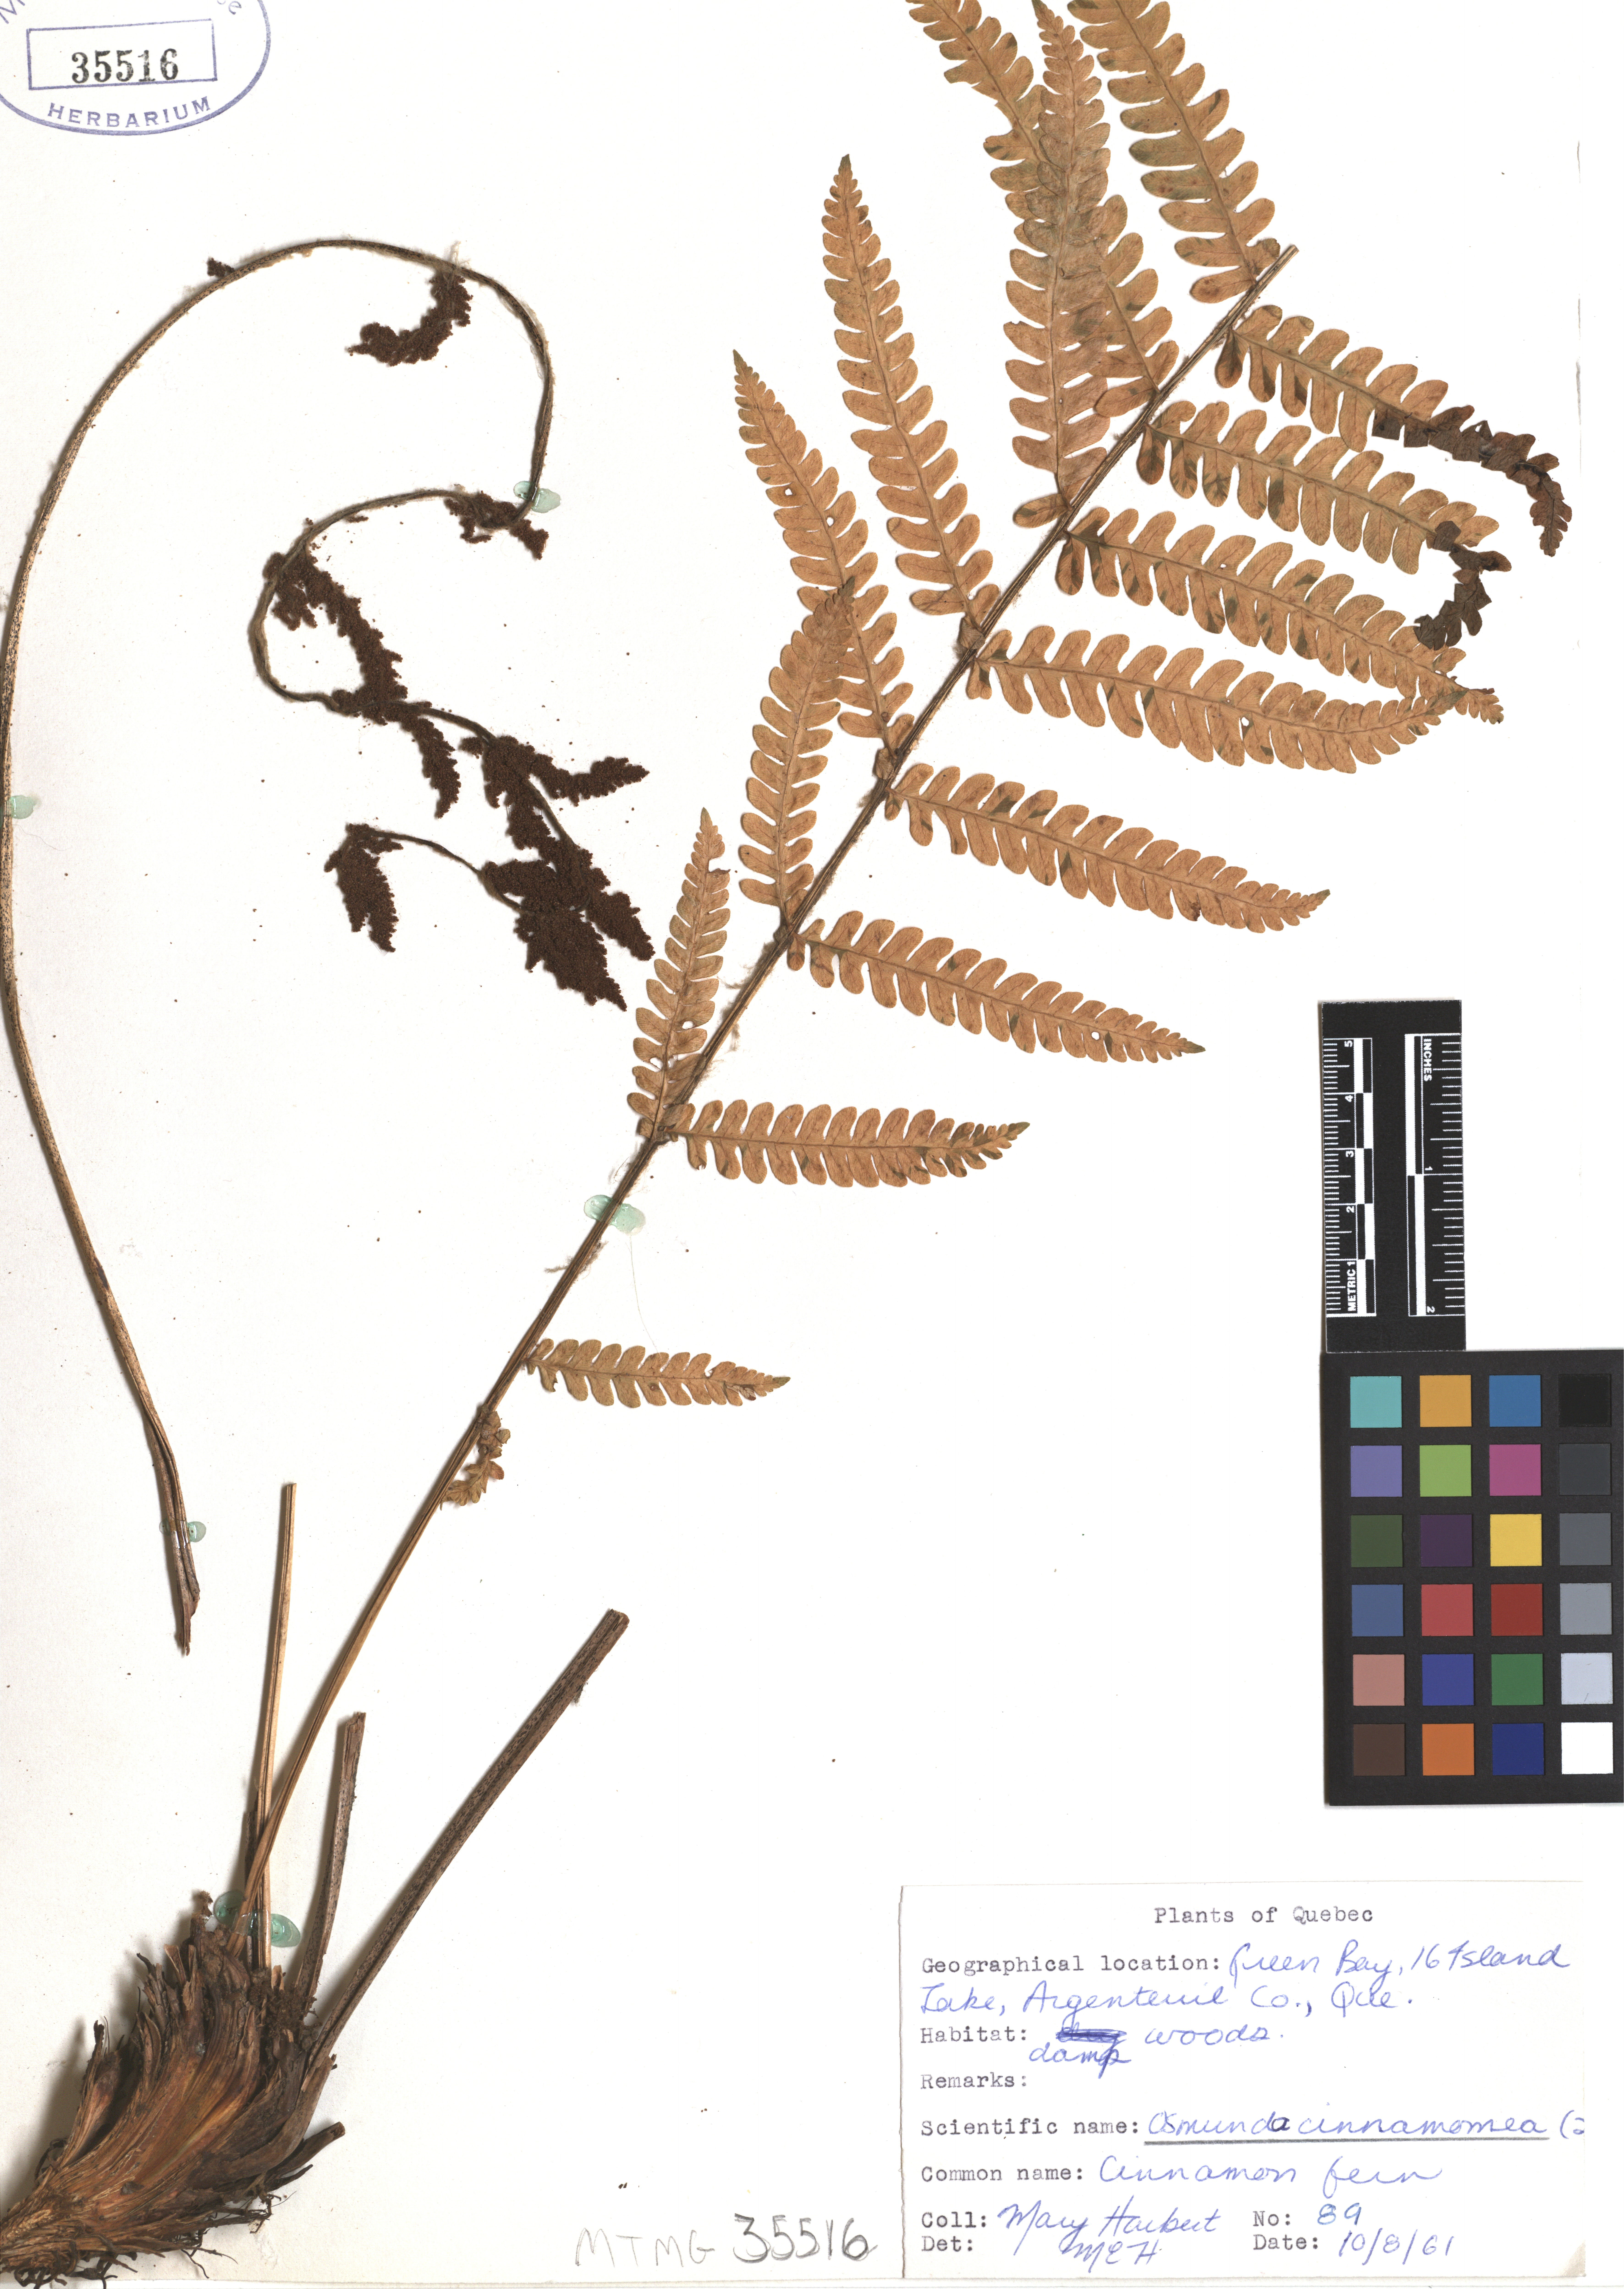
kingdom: Plantae
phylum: Tracheophyta
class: Polypodiopsida
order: Osmundales
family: Osmundaceae
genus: Osmundastrum
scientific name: Osmundastrum cinnamomeum
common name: Cinnamon fern
